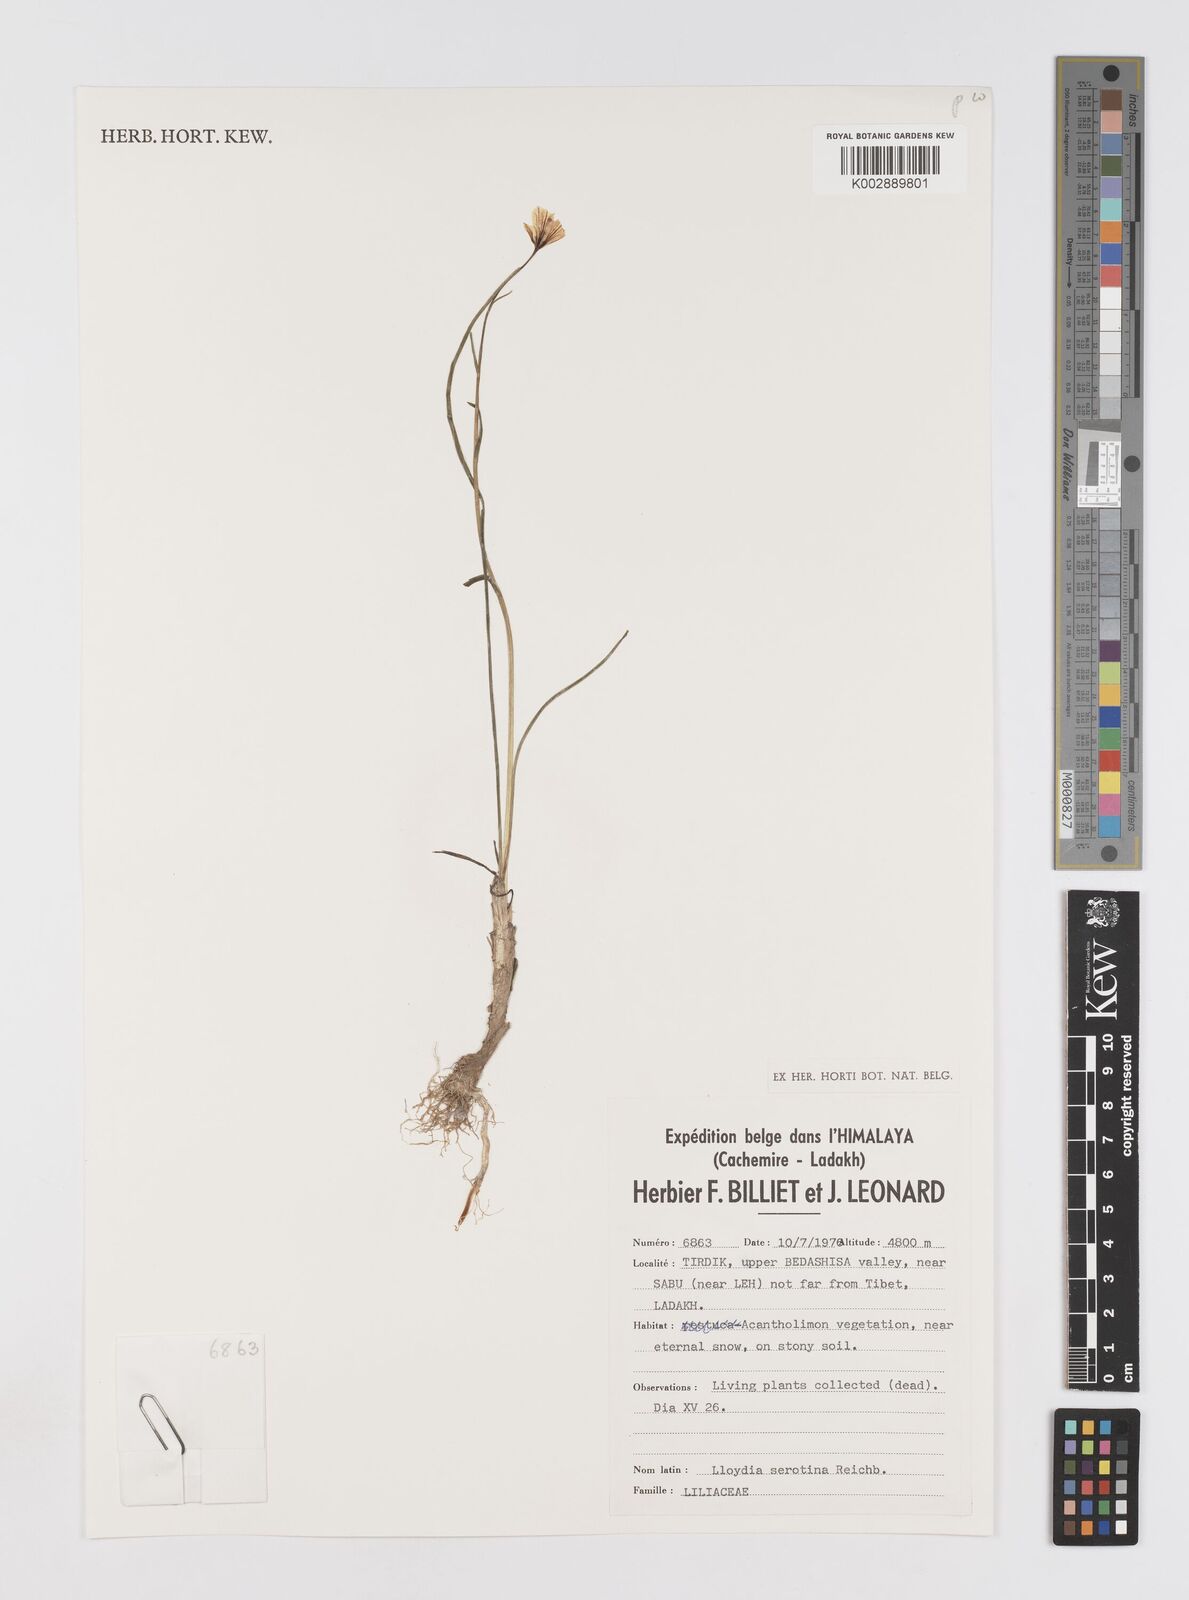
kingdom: Plantae
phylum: Tracheophyta
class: Liliopsida
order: Liliales
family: Liliaceae
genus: Gagea
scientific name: Gagea serotina
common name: Snowdon lily
